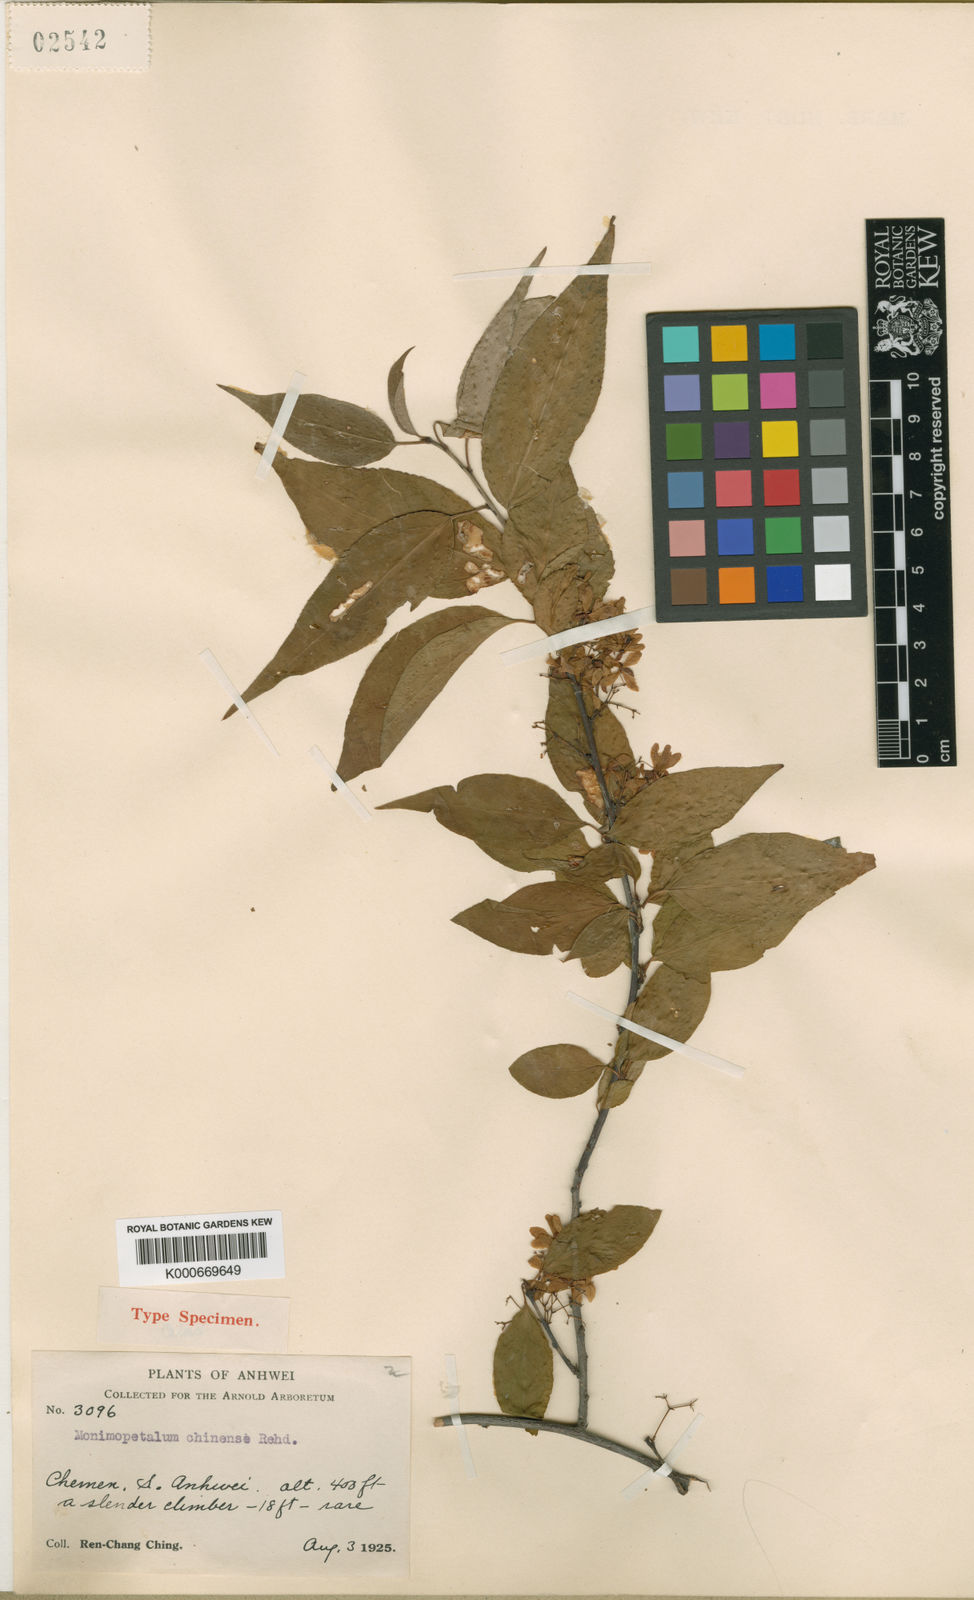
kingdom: Plantae
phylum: Tracheophyta
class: Magnoliopsida
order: Celastrales
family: Celastraceae
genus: Monimopetalum
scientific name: Monimopetalum chinense
